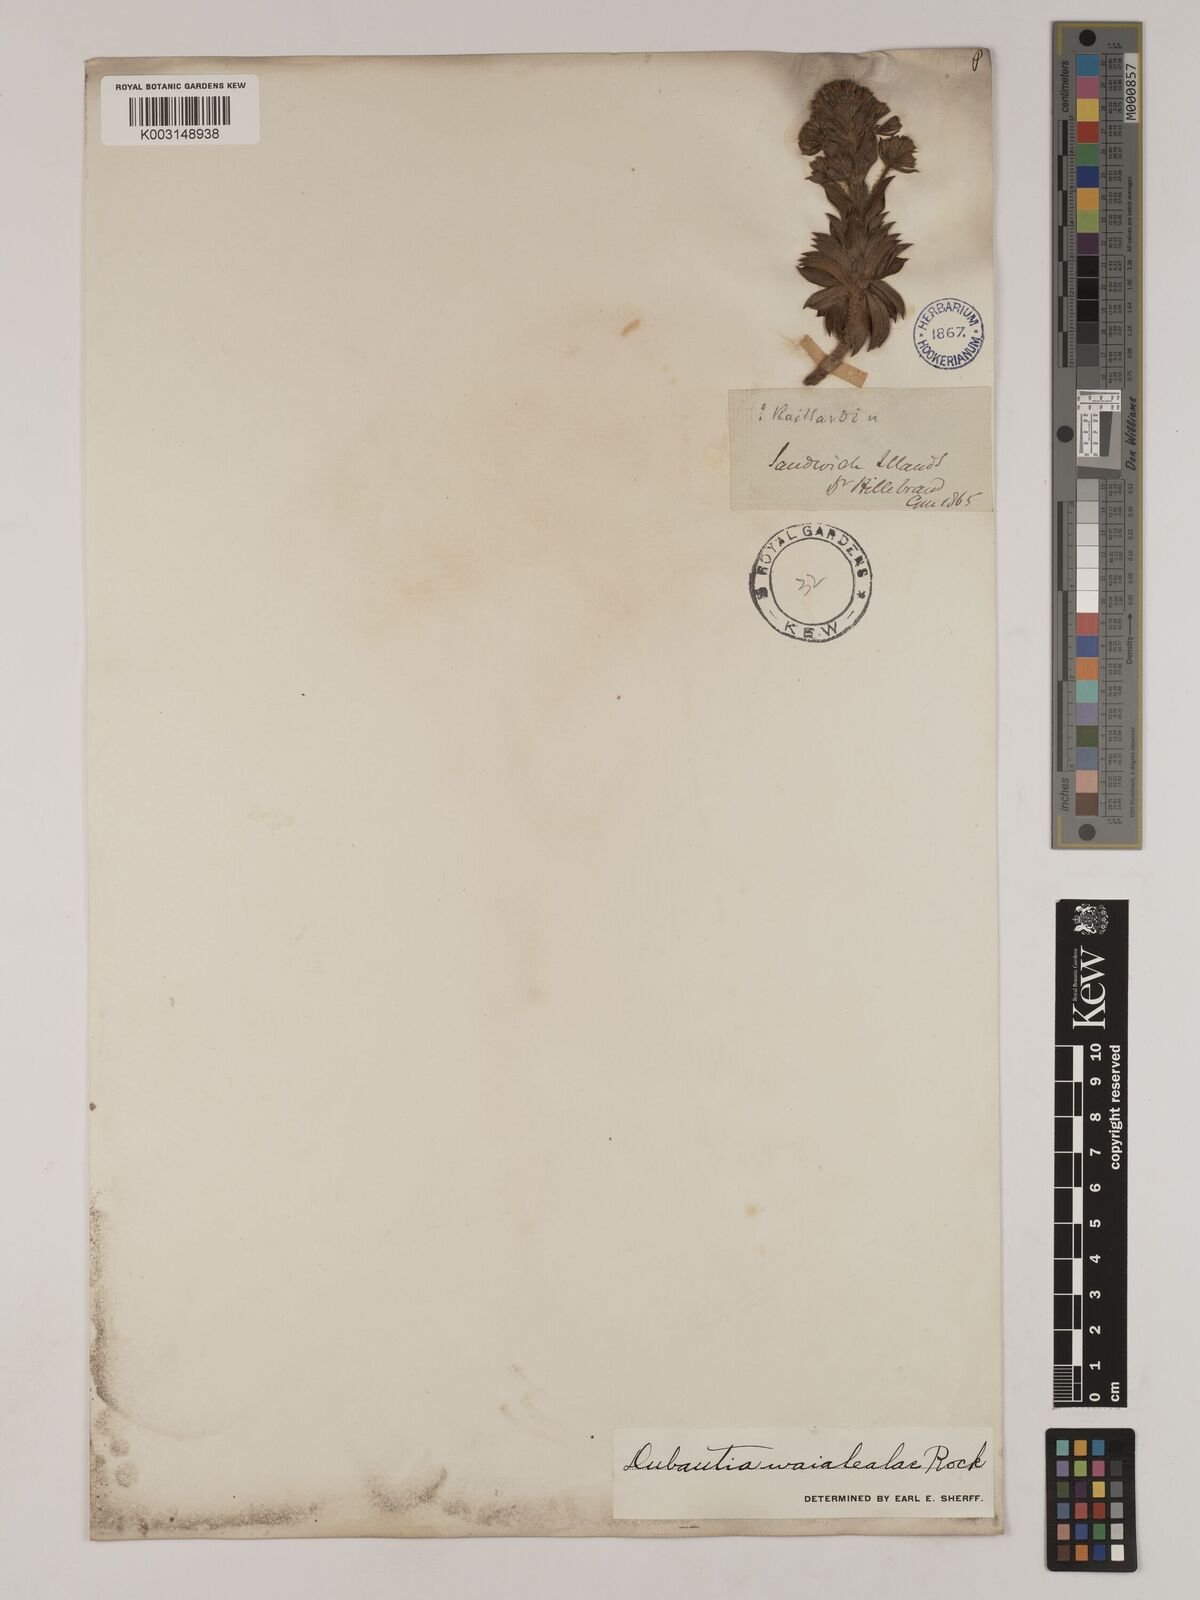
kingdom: Plantae
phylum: Tracheophyta
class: Magnoliopsida
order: Asterales
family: Asteraceae
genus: Dubautia
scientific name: Dubautia waialealae
